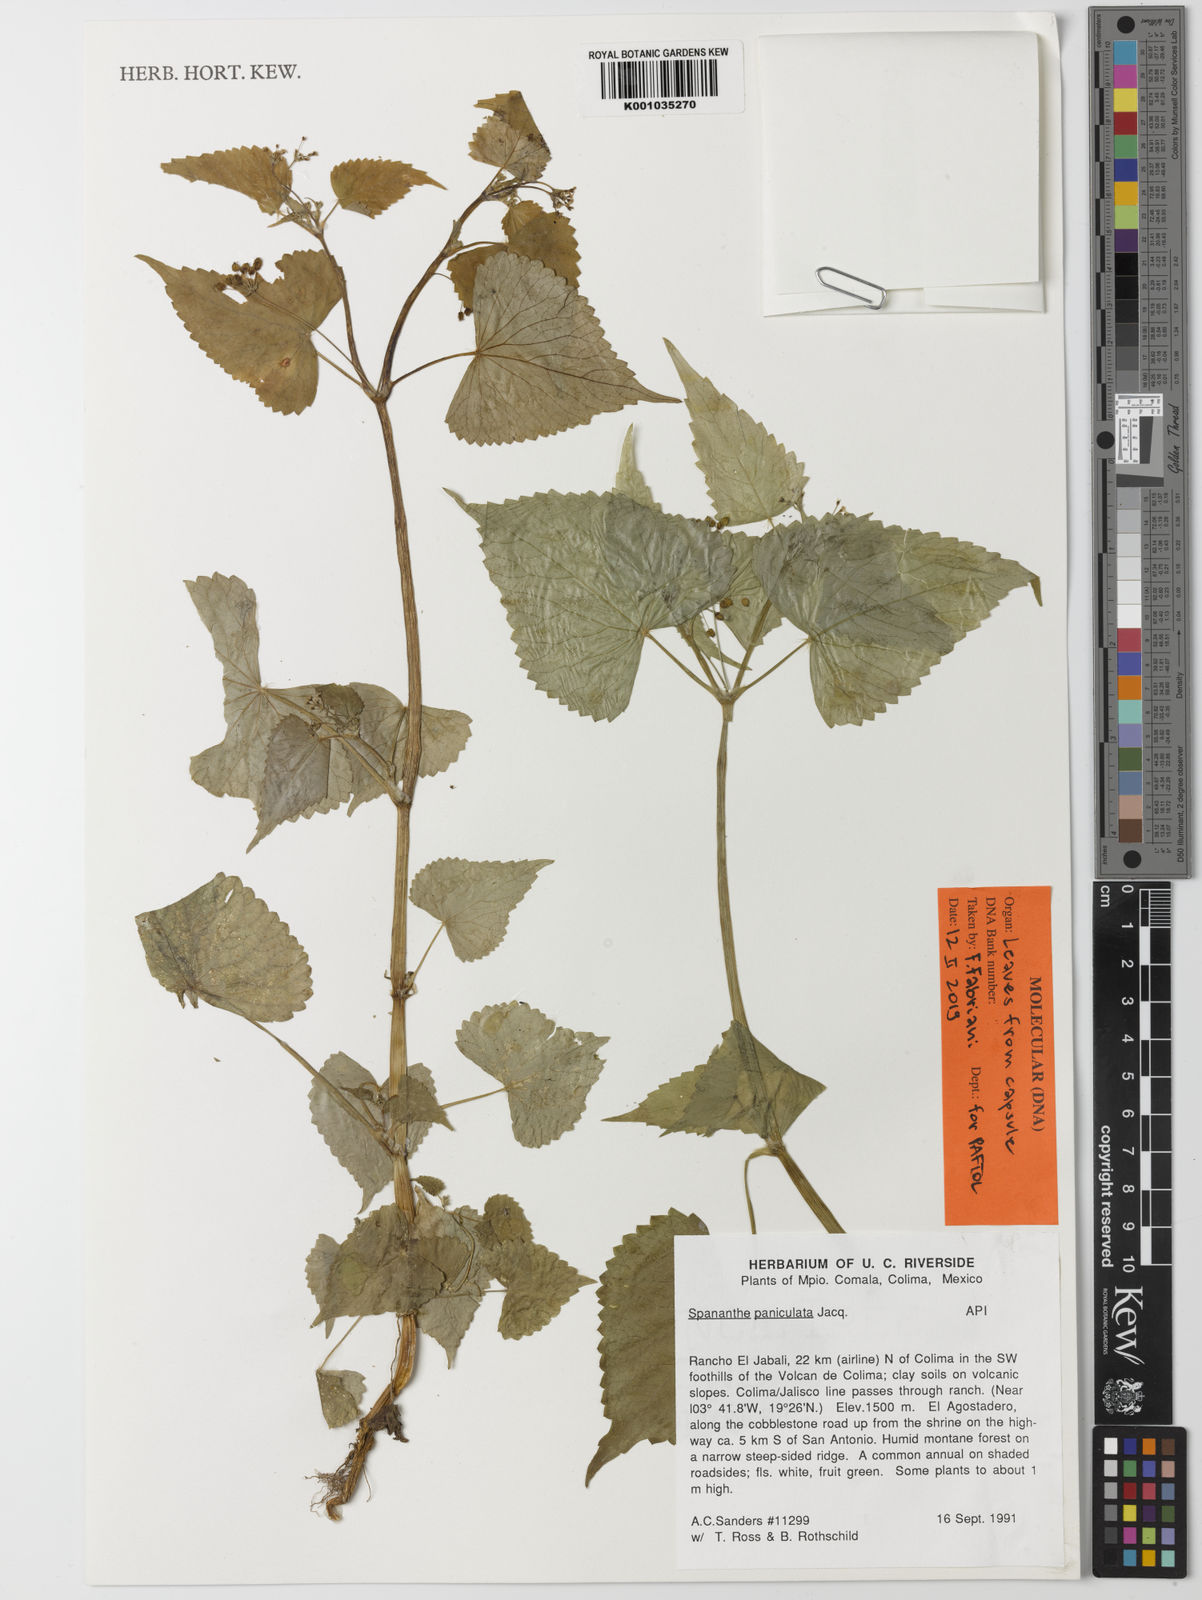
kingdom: Plantae
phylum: Tracheophyta
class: Magnoliopsida
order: Apiales
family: Apiaceae
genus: Spananthe
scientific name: Spananthe paniculata
